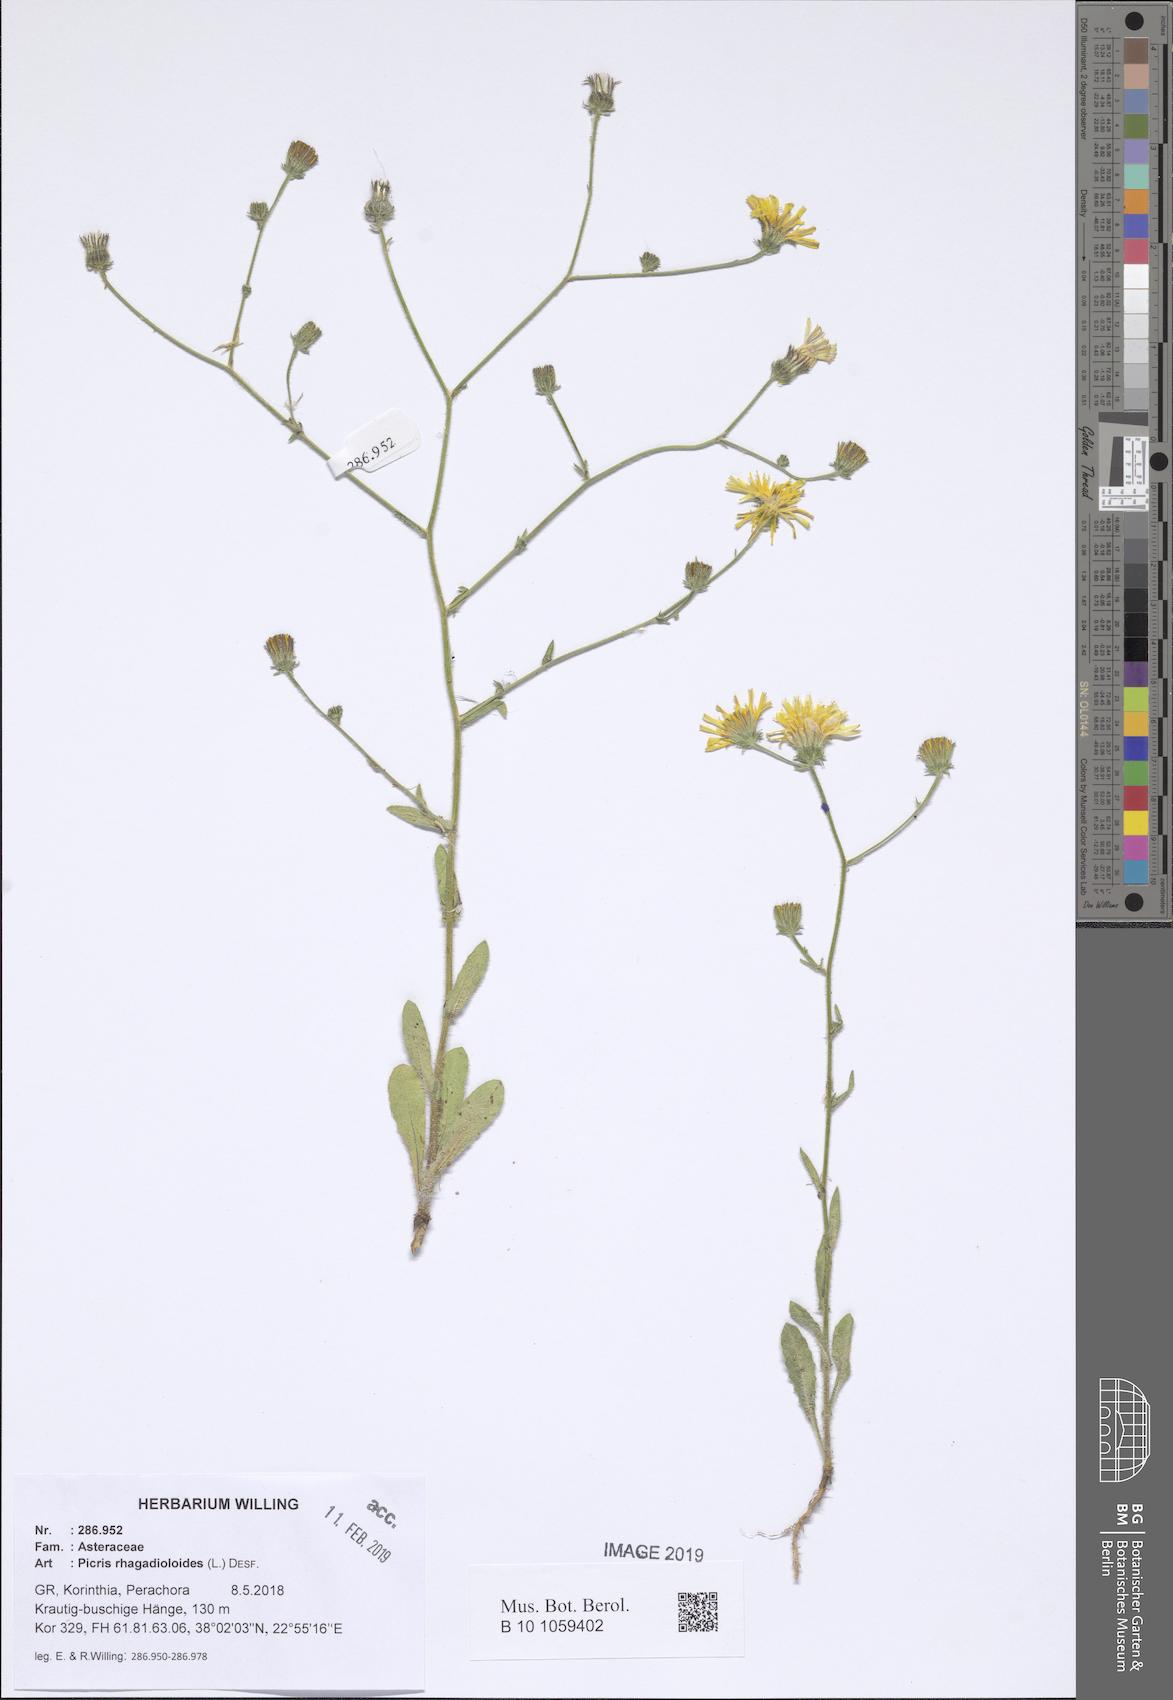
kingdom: Plantae
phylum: Tracheophyta
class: Magnoliopsida
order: Asterales
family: Asteraceae
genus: Picris
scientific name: Picris rhagadioloides
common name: Oxtongue
